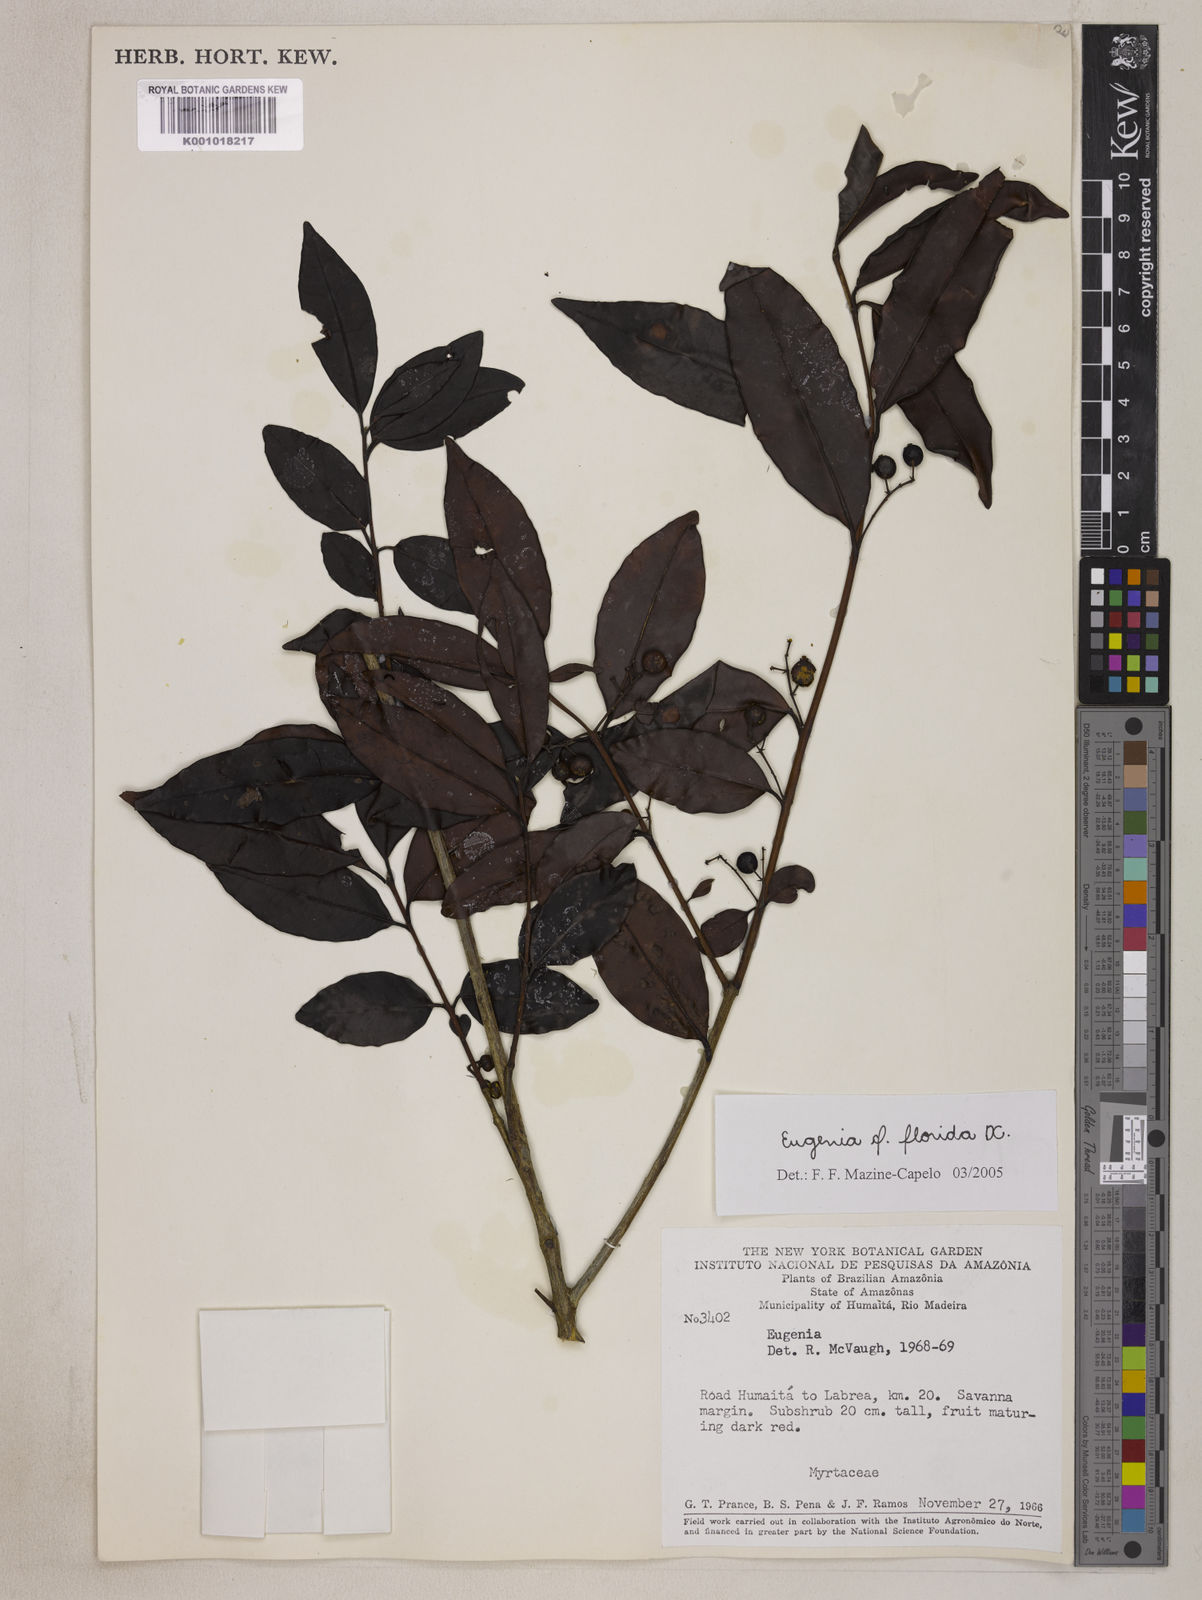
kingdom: Plantae
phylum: Tracheophyta
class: Magnoliopsida
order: Myrtales
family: Myrtaceae
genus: Eugenia
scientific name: Eugenia florida
